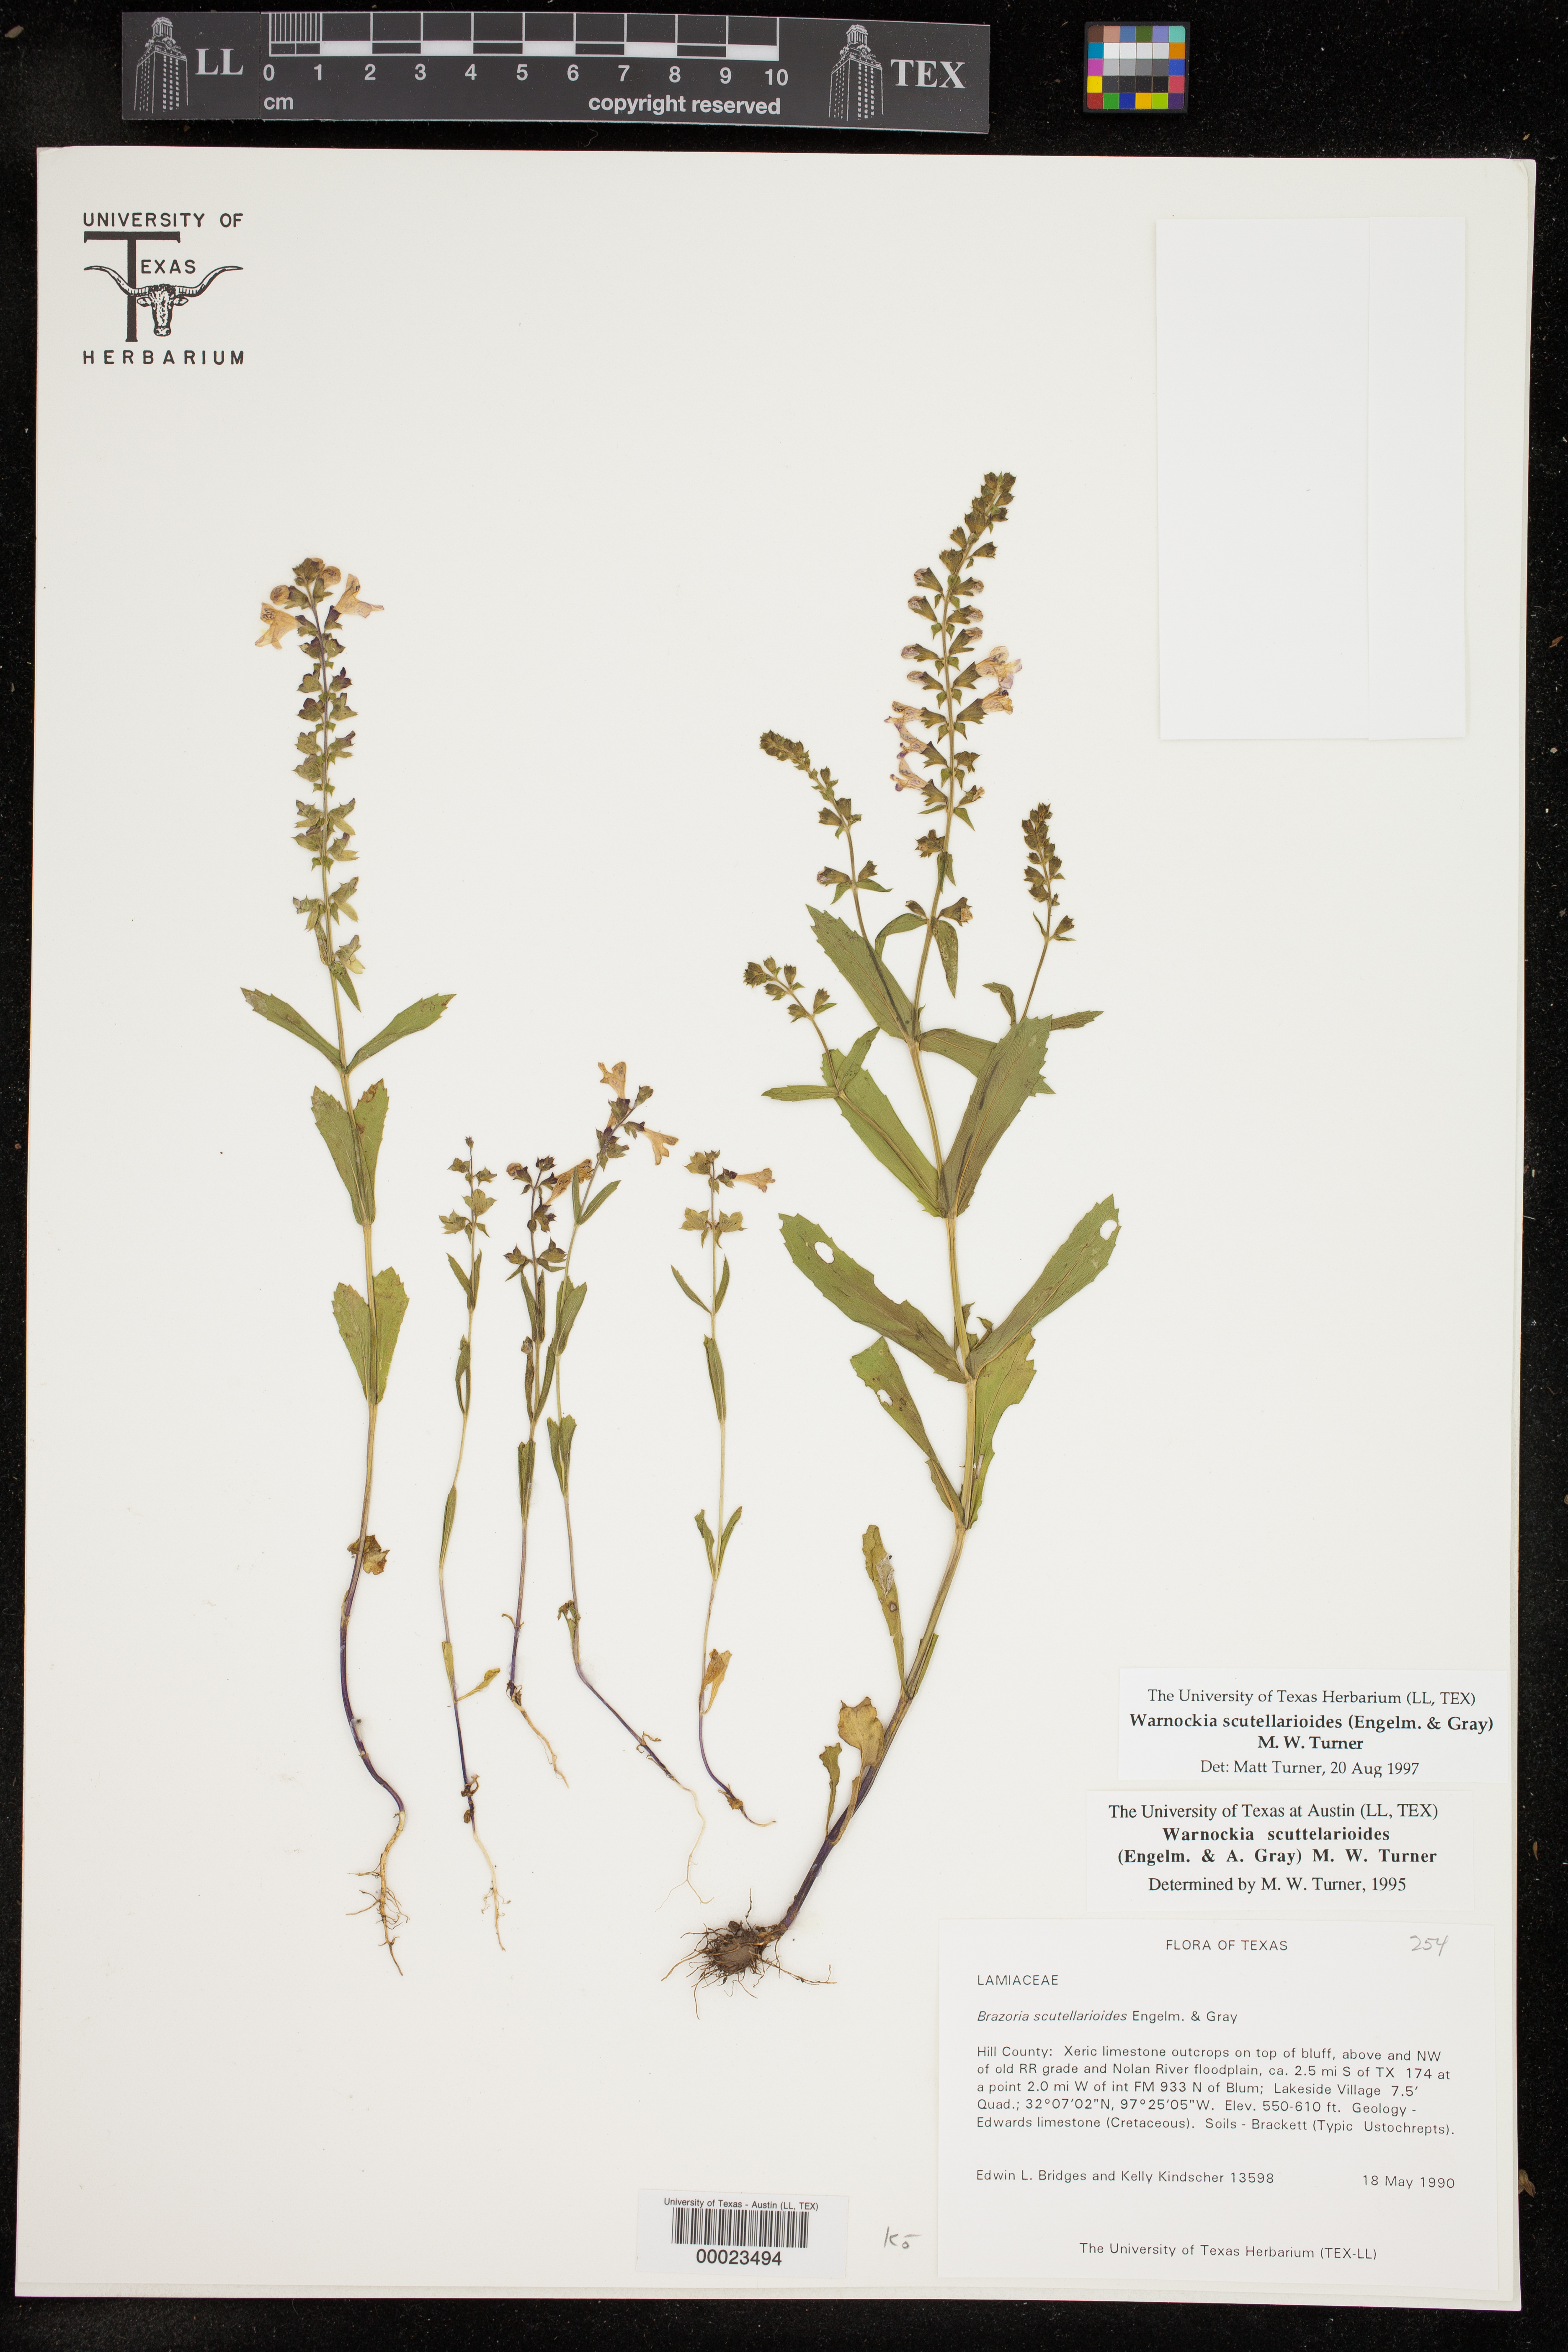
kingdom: Plantae
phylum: Tracheophyta
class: Magnoliopsida
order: Lamiales
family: Lamiaceae
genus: Warnockia
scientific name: Warnockia scutellarioides
